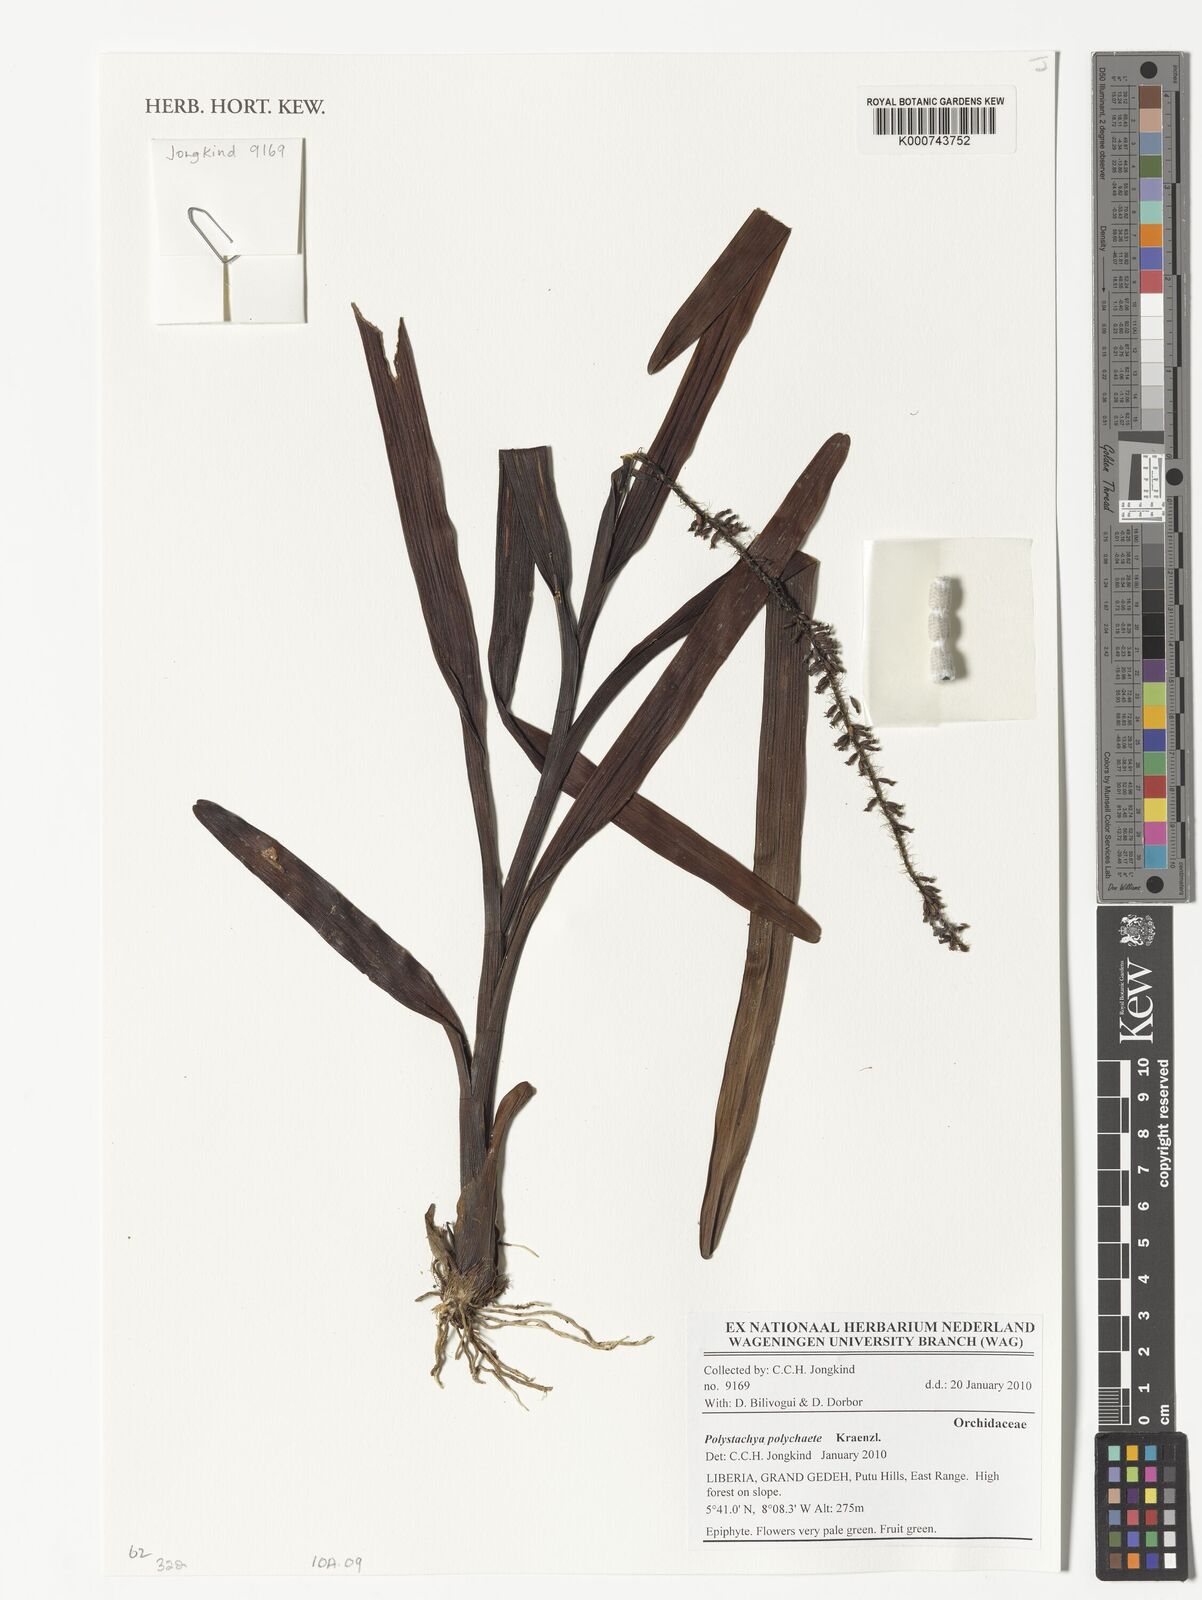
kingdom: Plantae
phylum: Tracheophyta
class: Liliopsida
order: Asparagales
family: Orchidaceae
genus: Polystachya
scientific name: Polystachya polychaete
